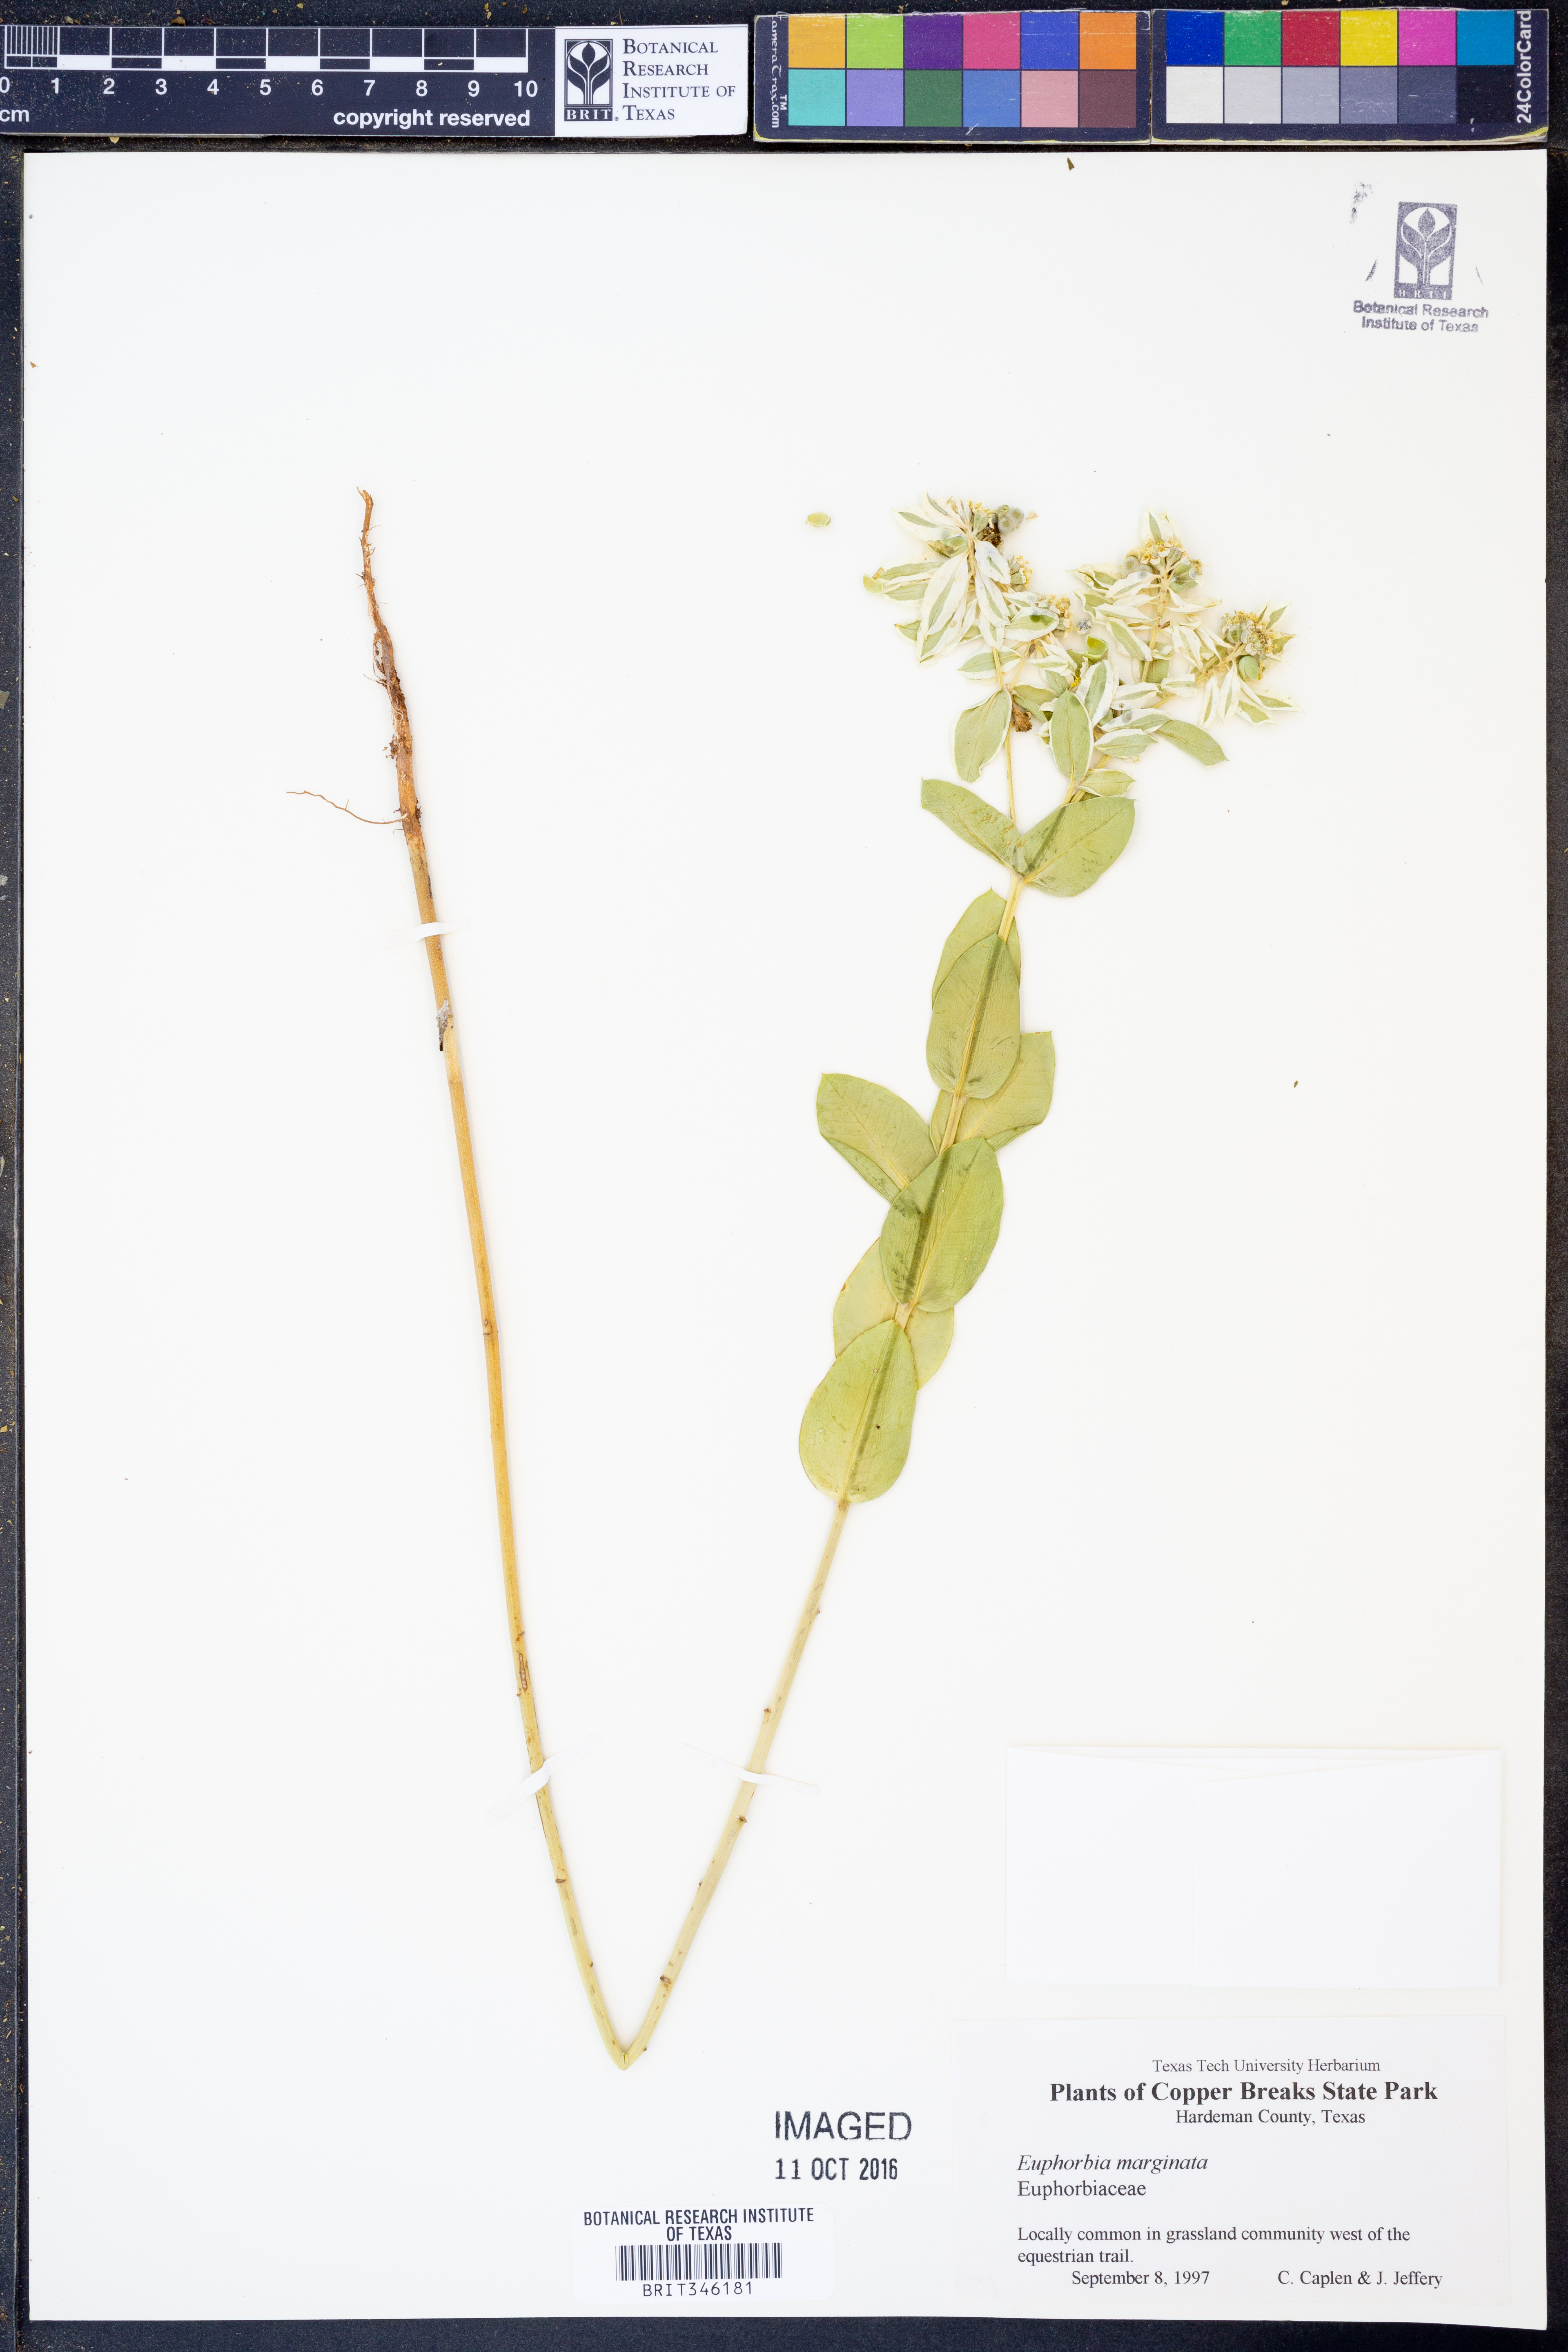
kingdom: Plantae
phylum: Tracheophyta
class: Magnoliopsida
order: Malpighiales
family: Euphorbiaceae
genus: Euphorbia
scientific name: Euphorbia marginata
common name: Ghostweed
